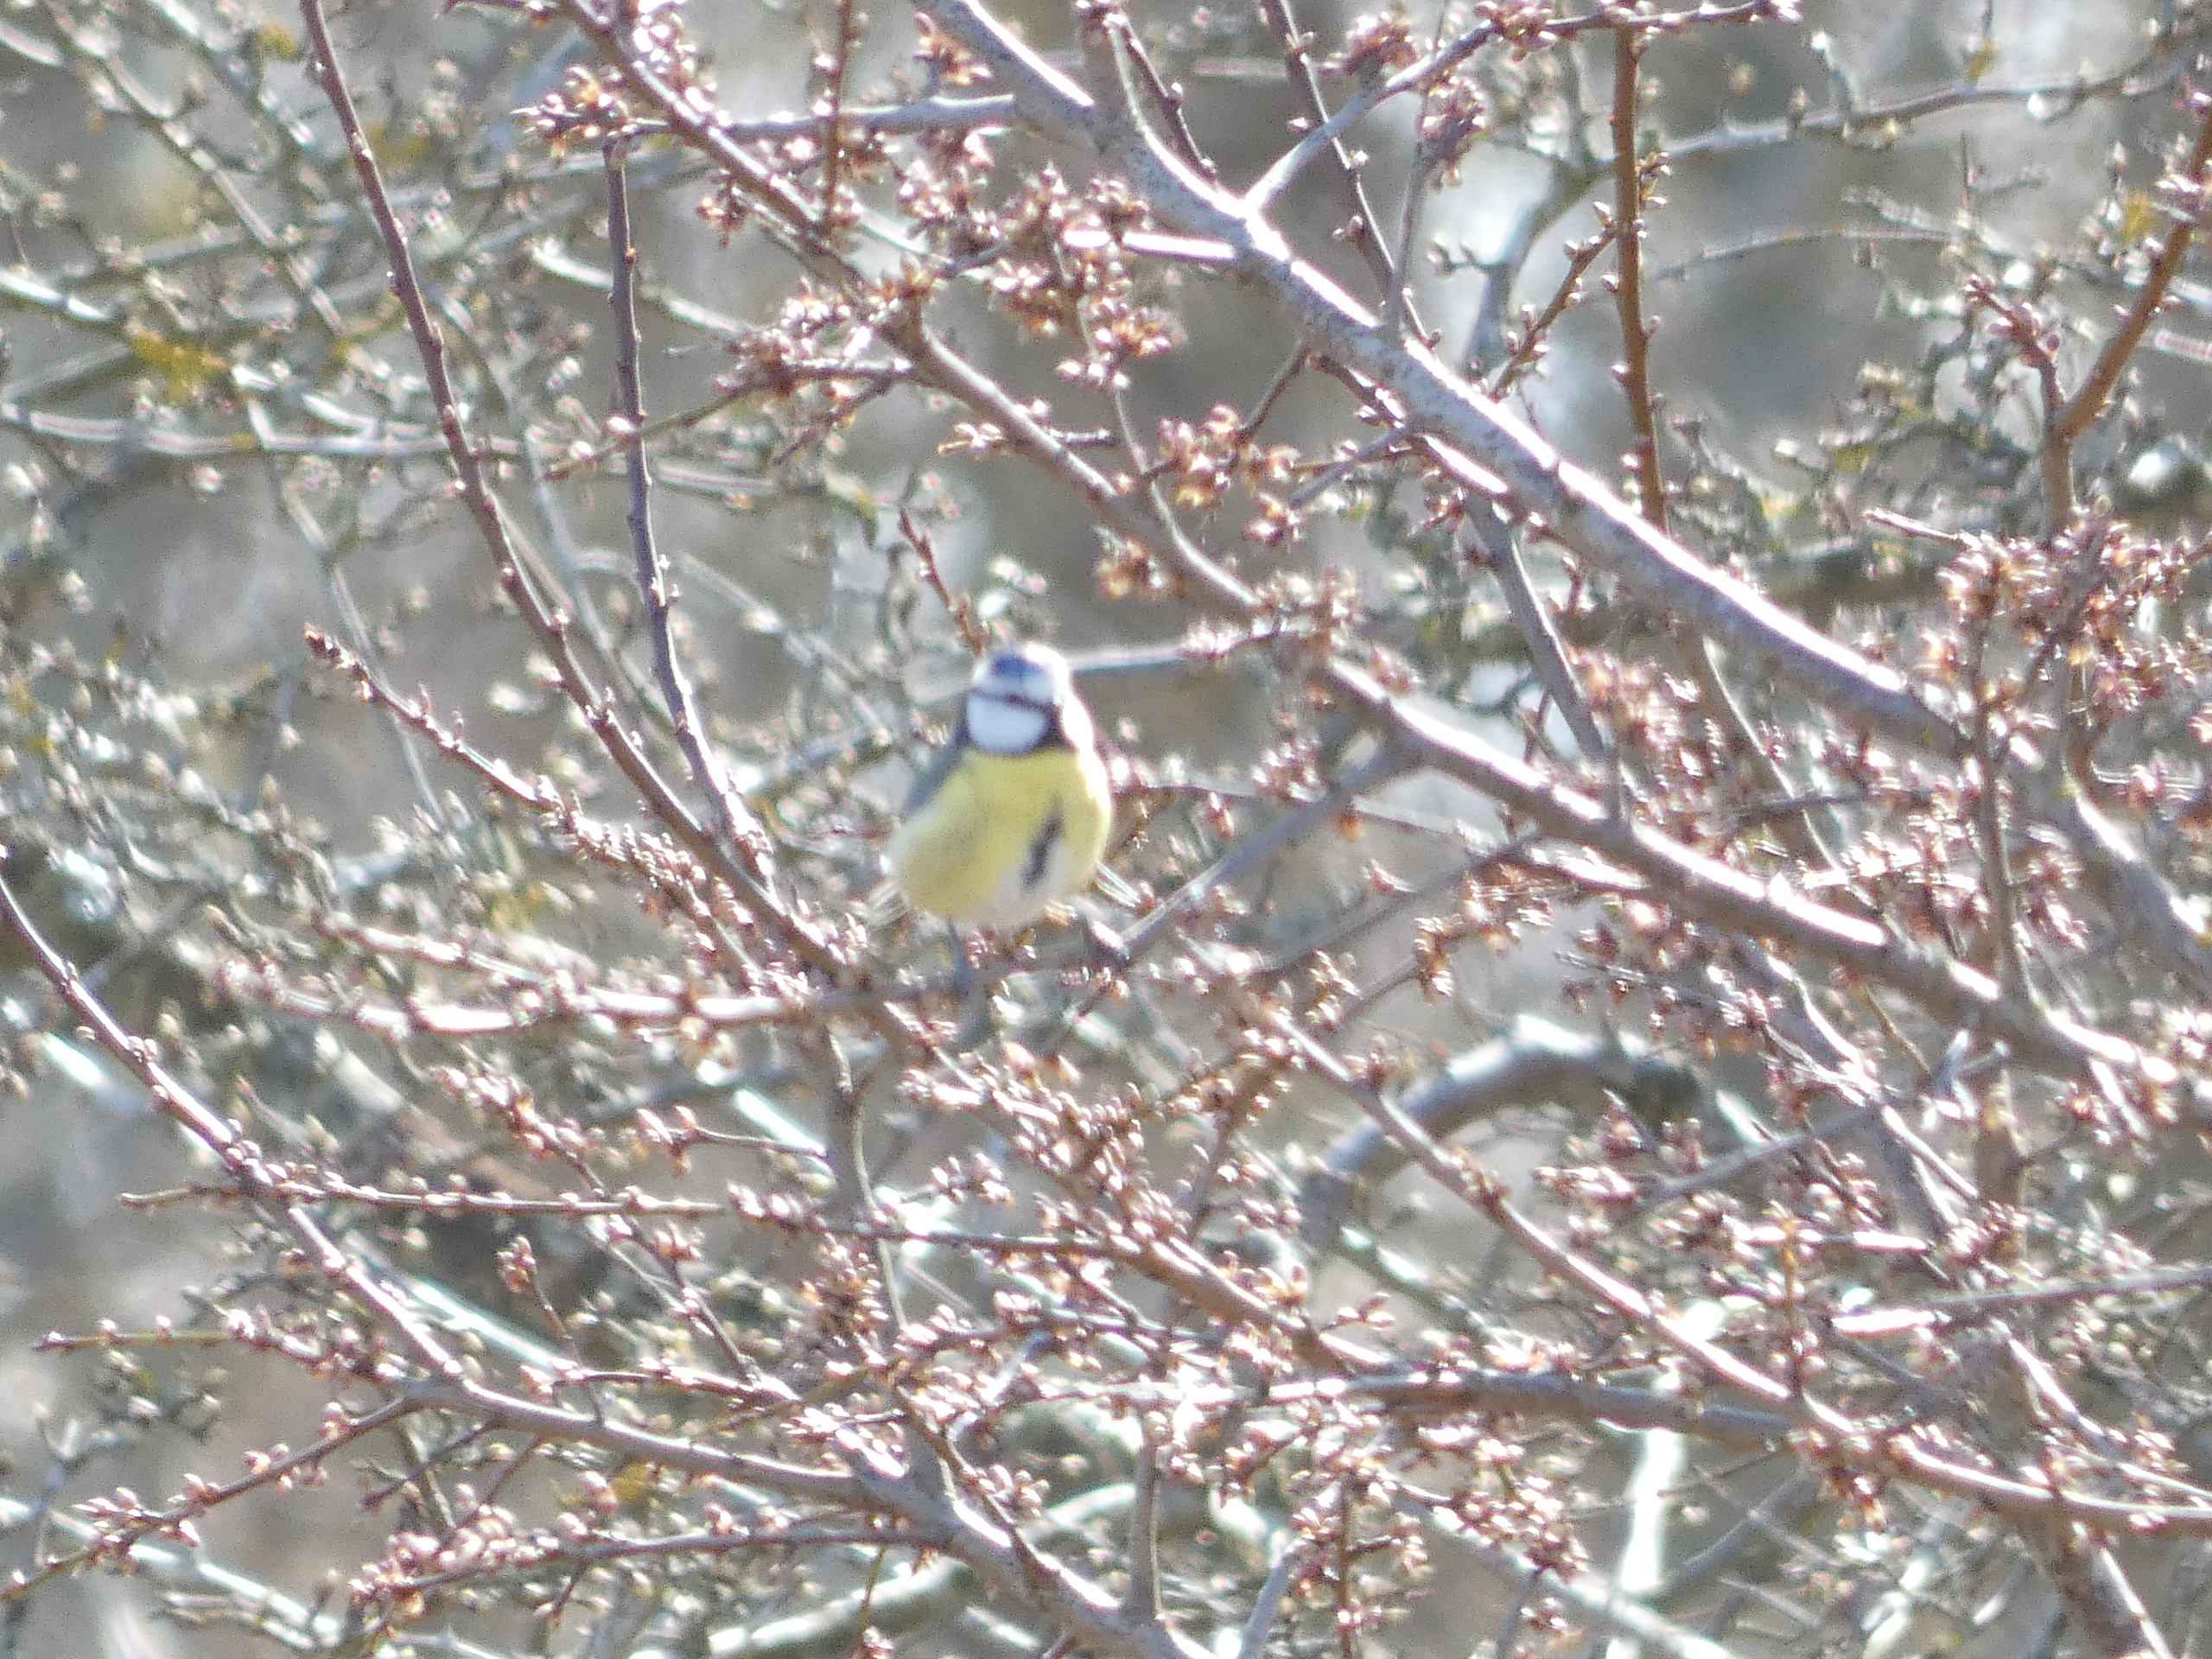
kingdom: Animalia
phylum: Chordata
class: Aves
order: Passeriformes
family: Paridae
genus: Cyanistes
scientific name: Cyanistes caeruleus
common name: Blåmejse
